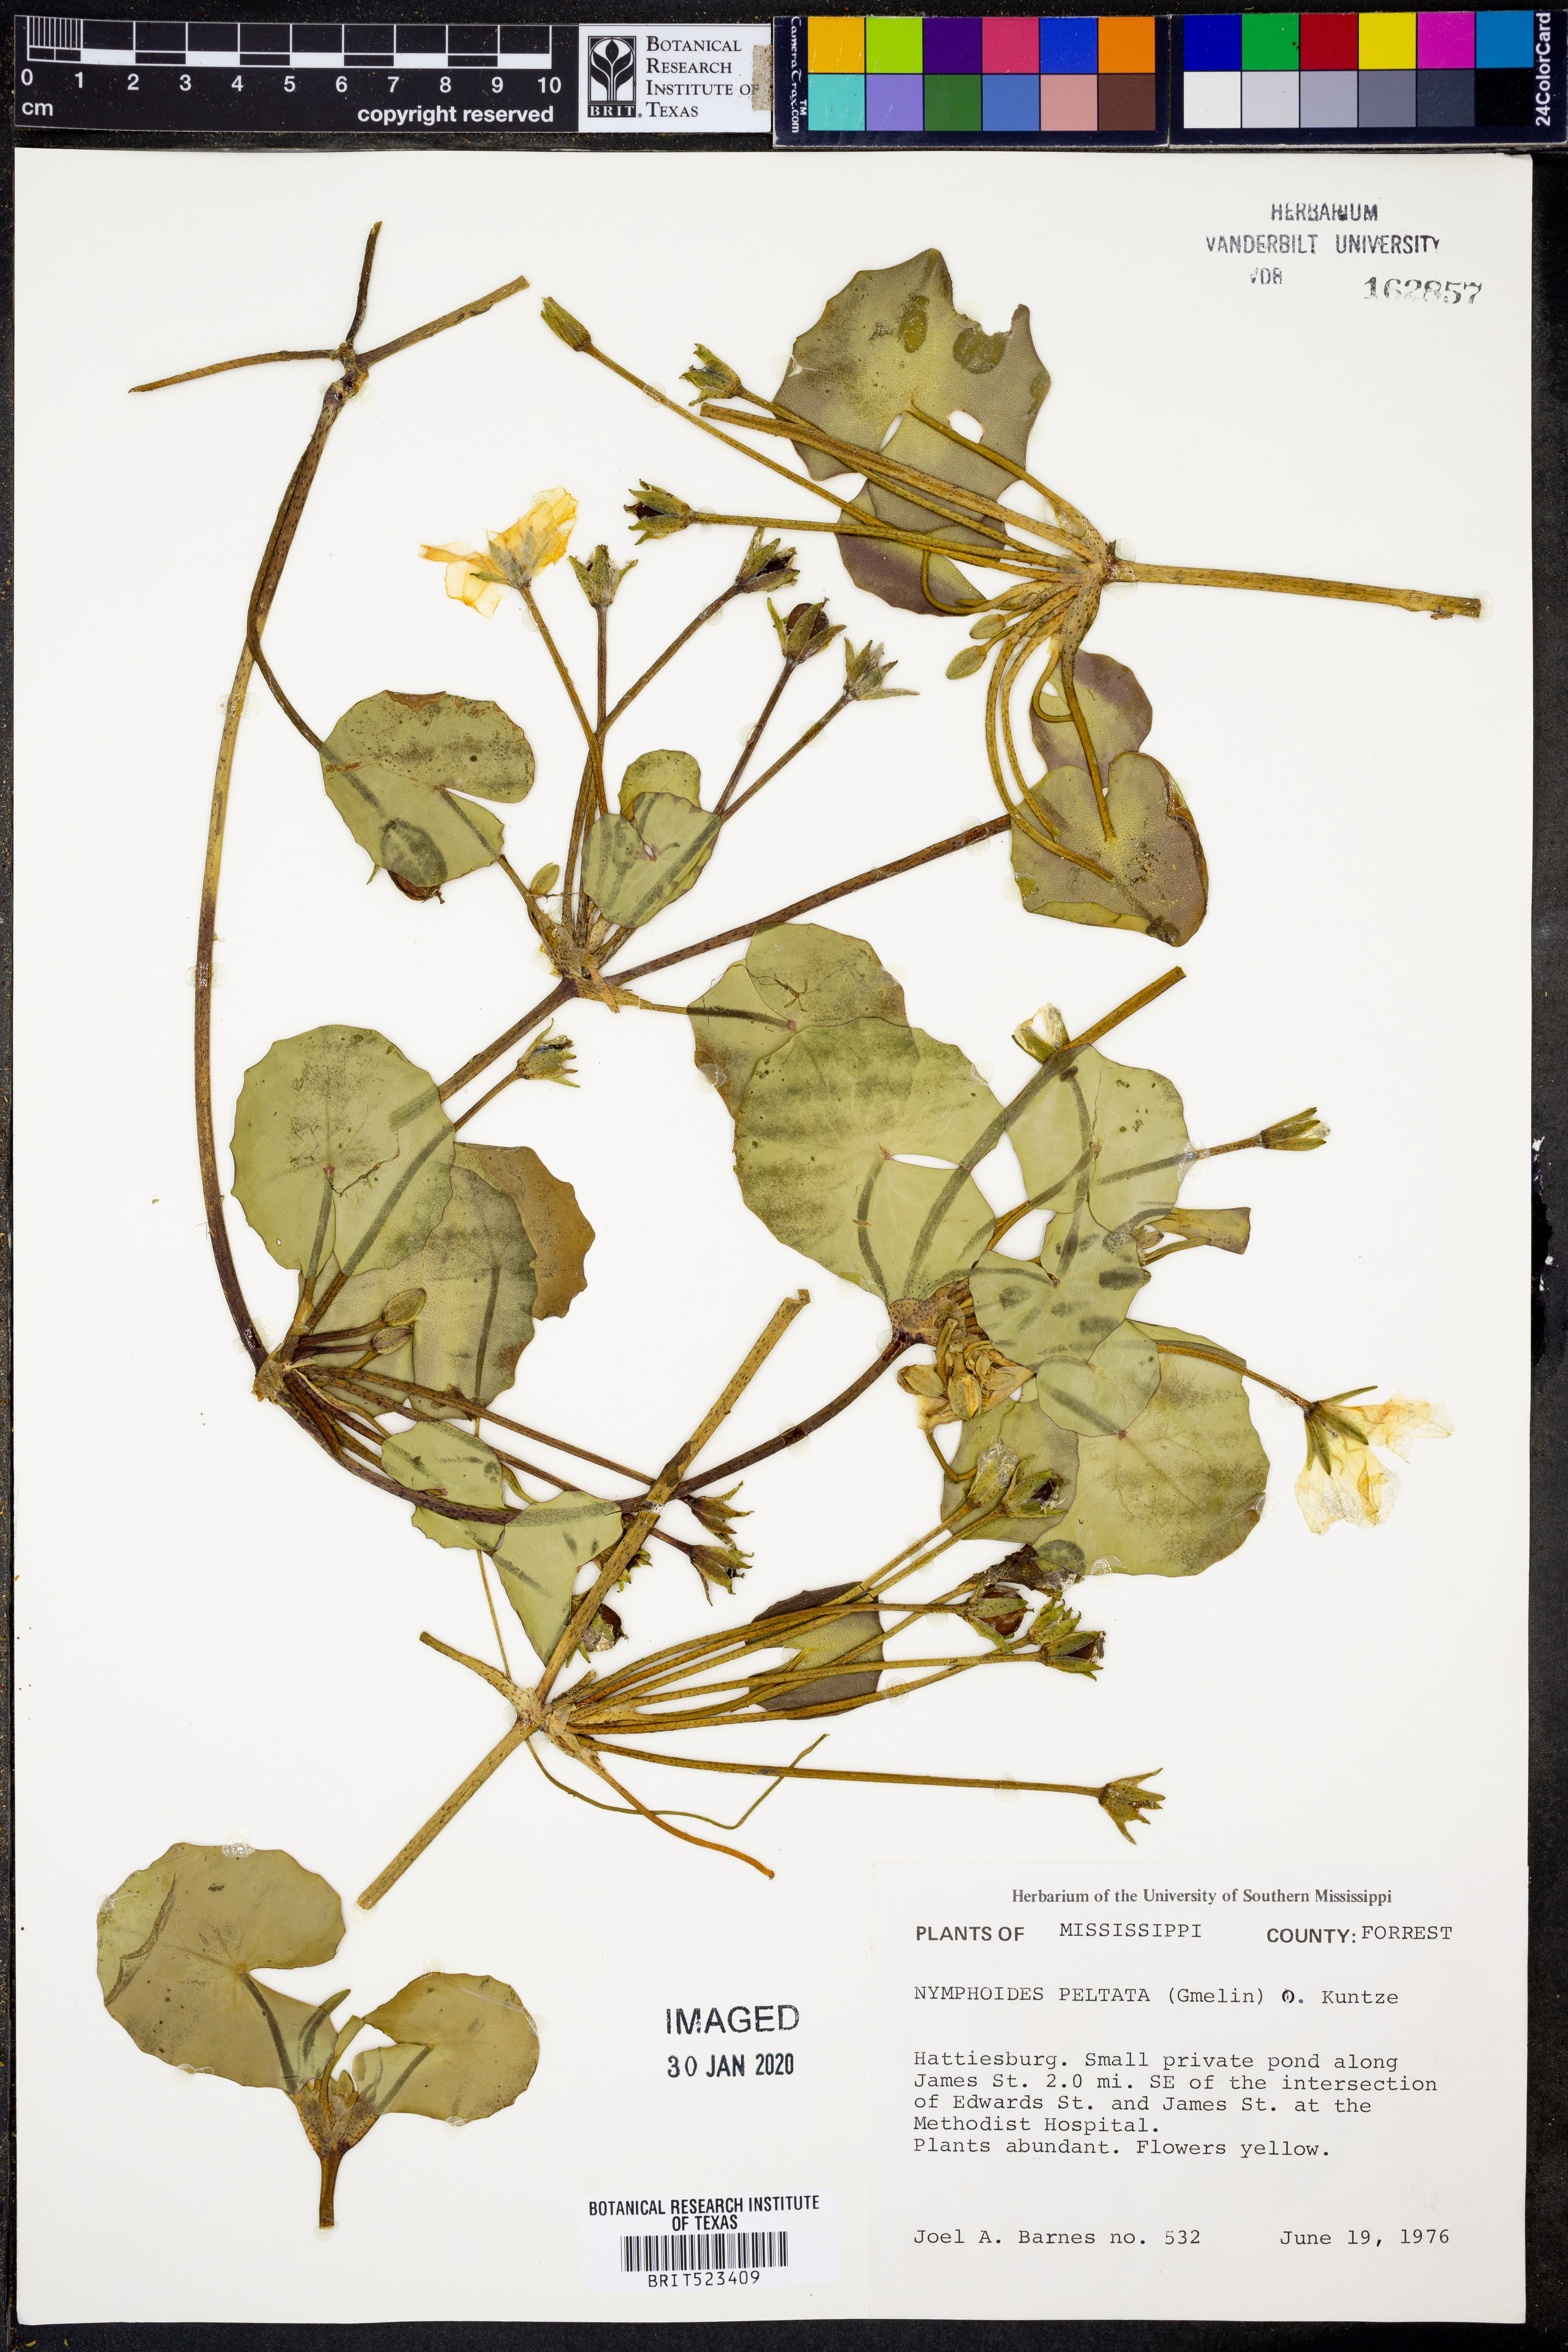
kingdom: Plantae
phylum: Tracheophyta
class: Magnoliopsida
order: Asterales
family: Menyanthaceae
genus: Nymphoides
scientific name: Nymphoides peltata
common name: Fringed water-lily
